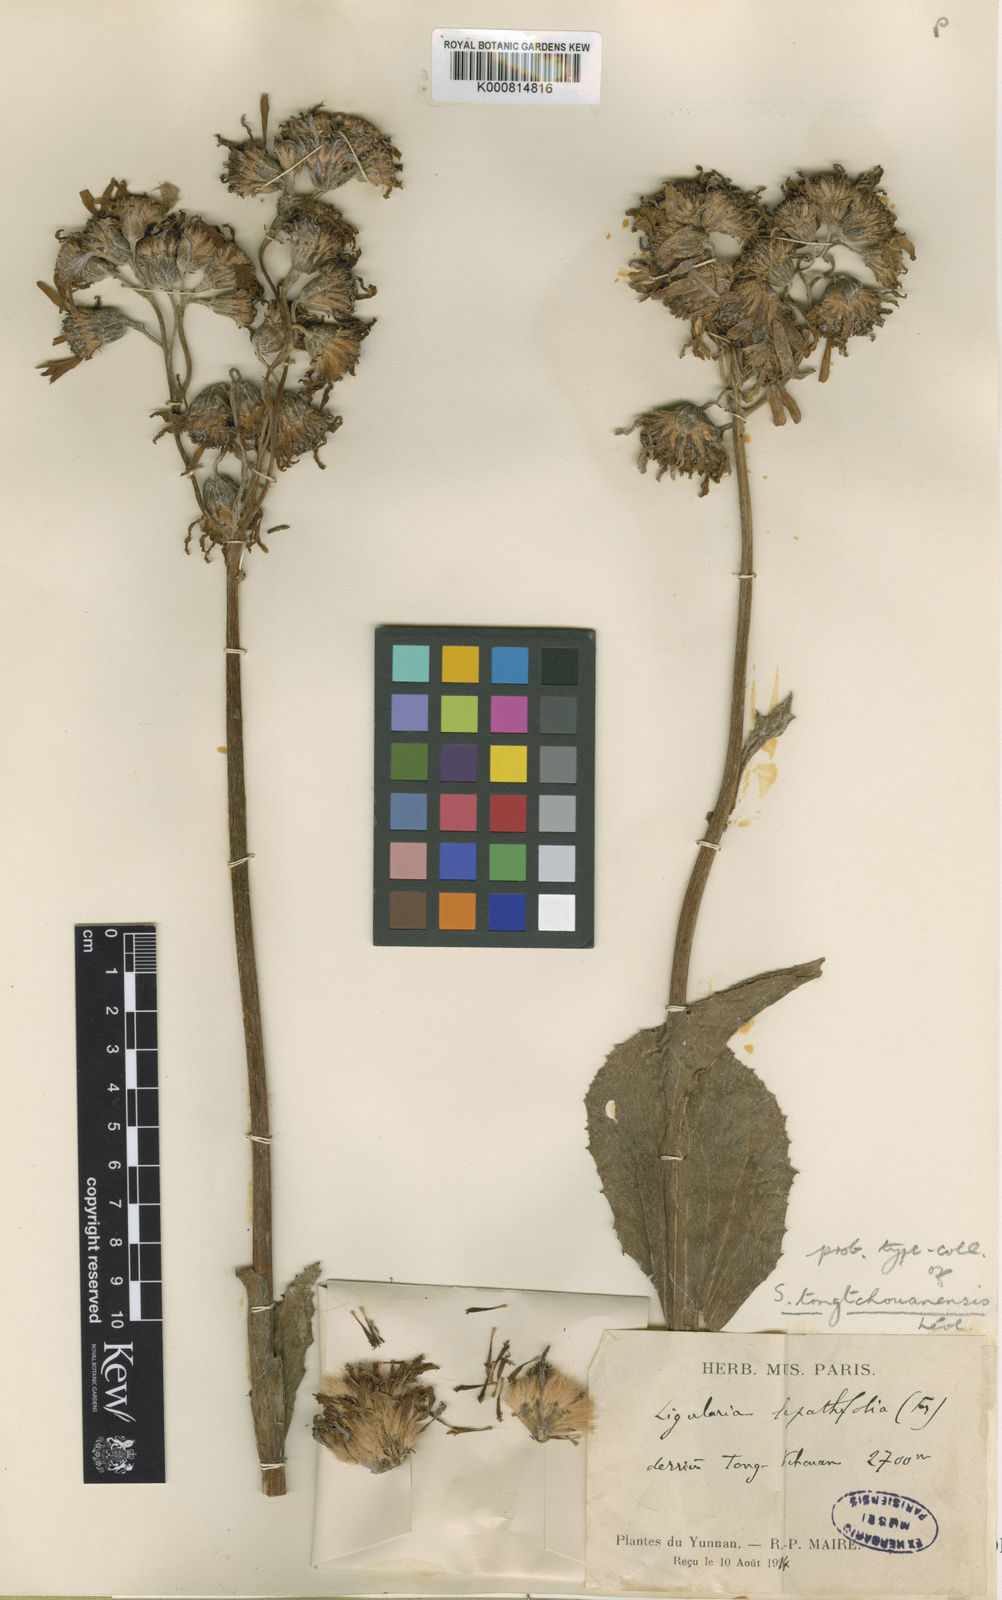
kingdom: Plantae
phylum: Tracheophyta
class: Magnoliopsida
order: Asterales
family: Asteraceae
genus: Ligularia
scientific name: Ligularia lapathifolia
